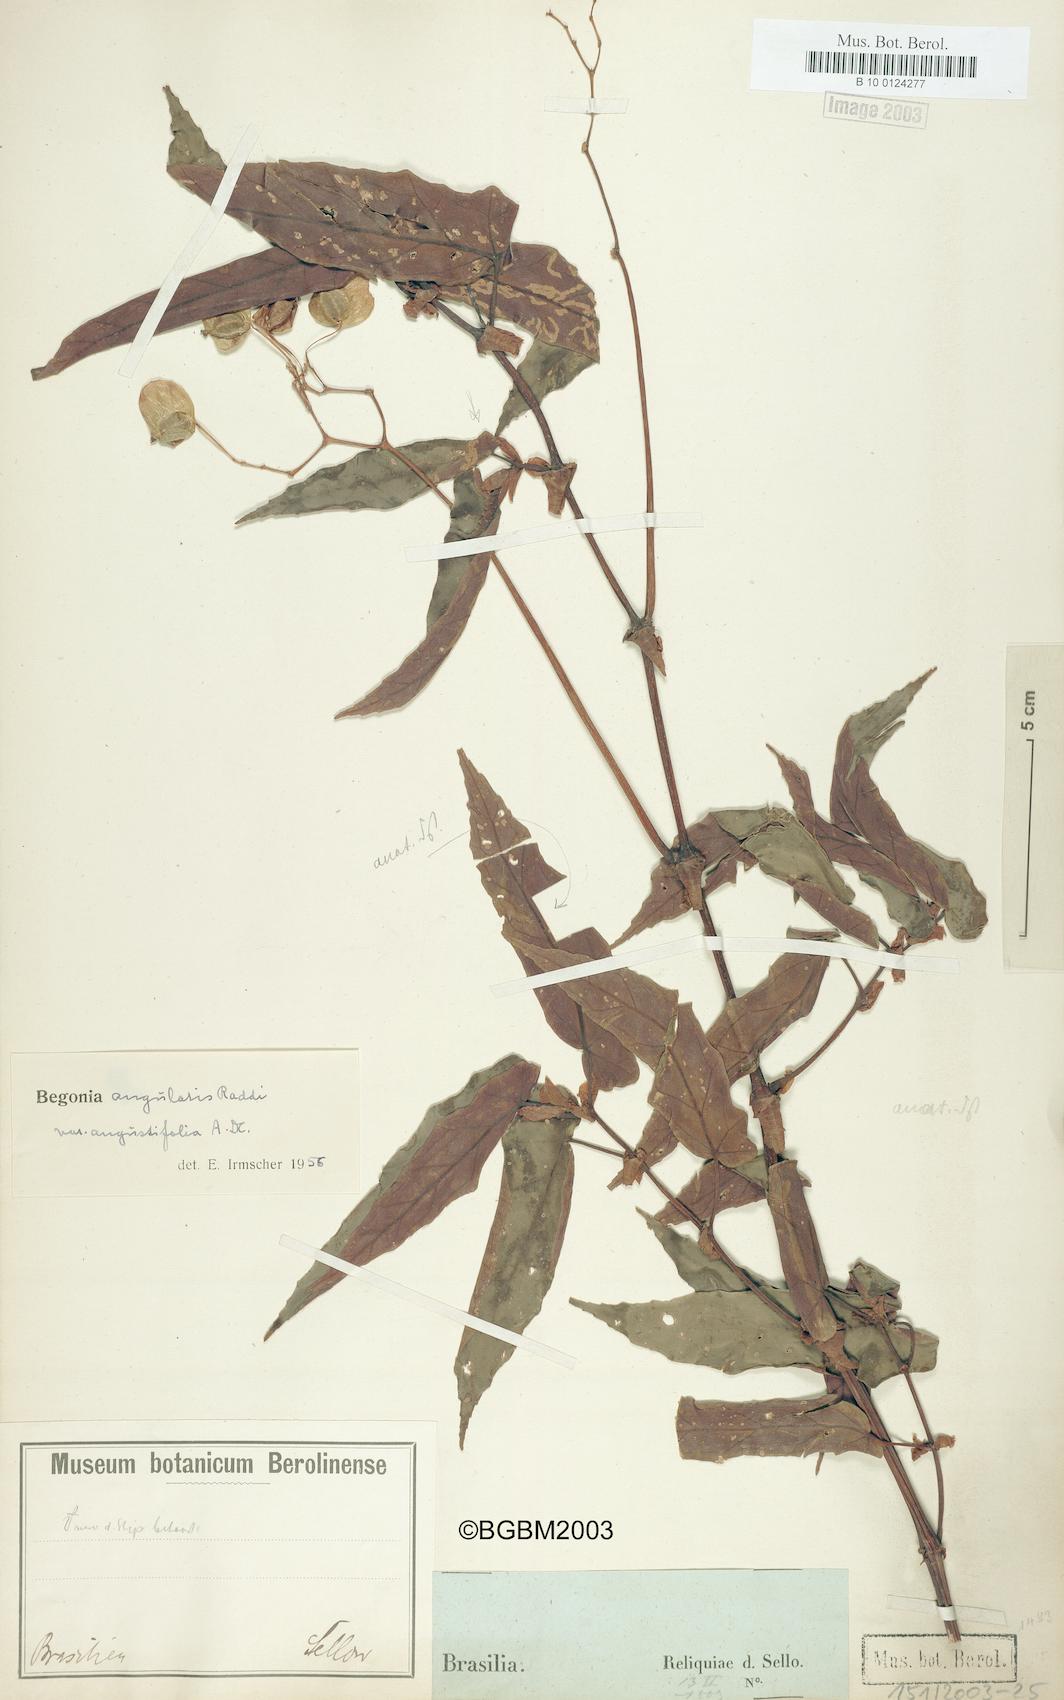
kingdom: Plantae
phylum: Tracheophyta
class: Magnoliopsida
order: Cucurbitales
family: Begoniaceae
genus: Begonia
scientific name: Begonia angularis
